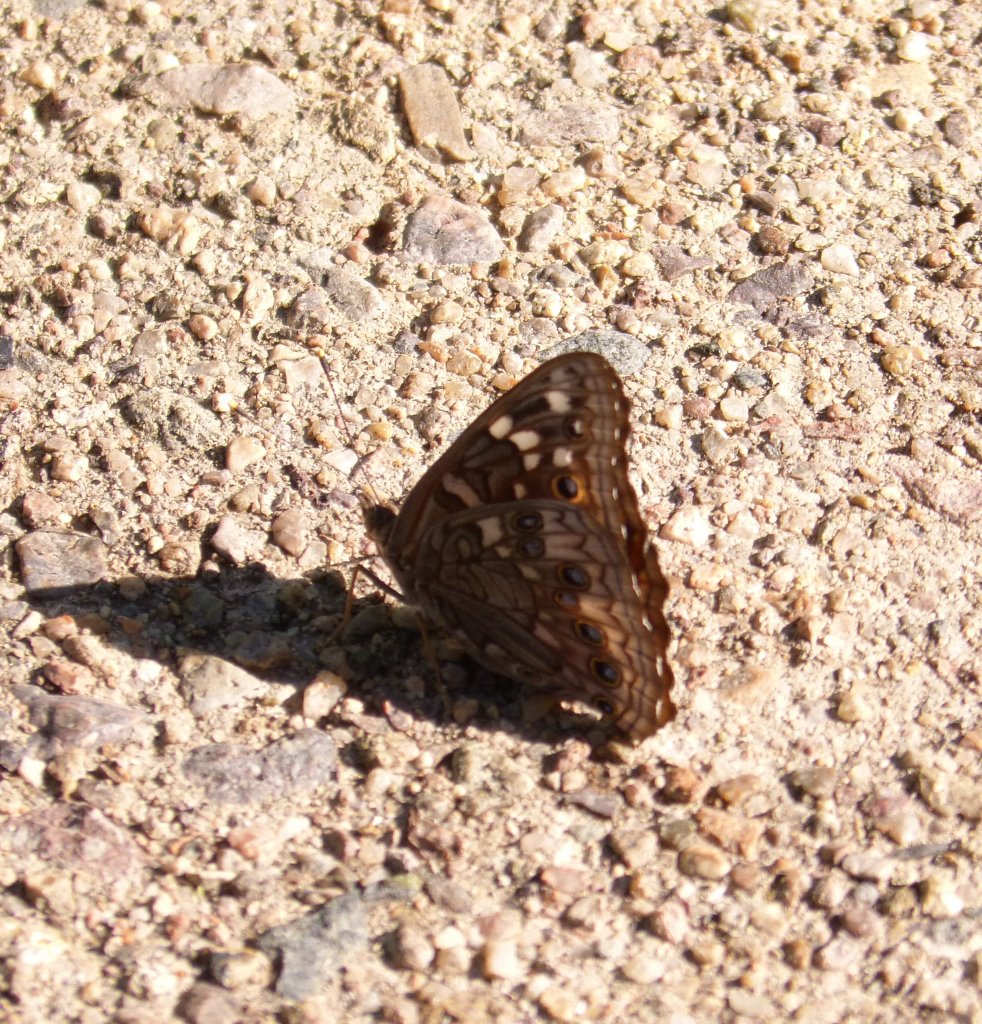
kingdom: Animalia
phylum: Arthropoda
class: Insecta
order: Lepidoptera
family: Nymphalidae
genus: Asterocampa
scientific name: Asterocampa leilia
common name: Empress Leilia
